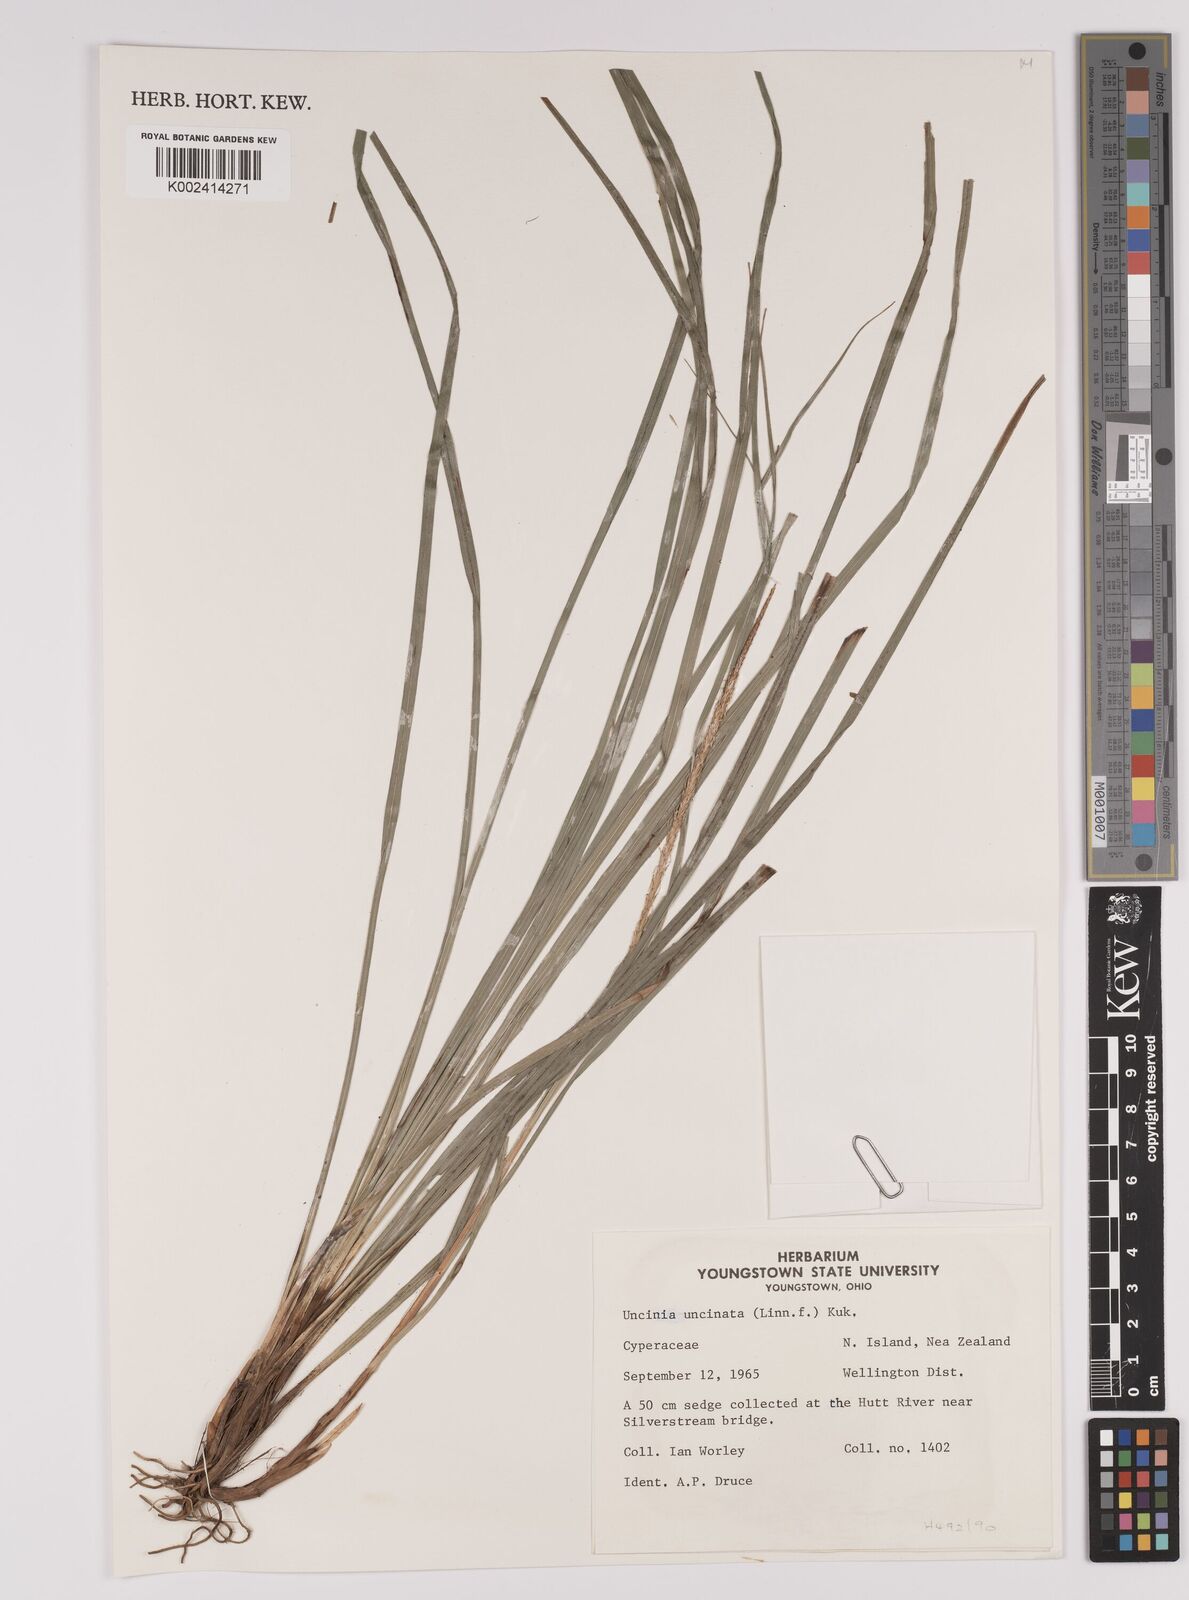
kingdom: Fungi
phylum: Ascomycota
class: Leotiomycetes
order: Helotiales
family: Hamatocanthoscyphaceae
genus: Uncinia
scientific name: Uncinia
